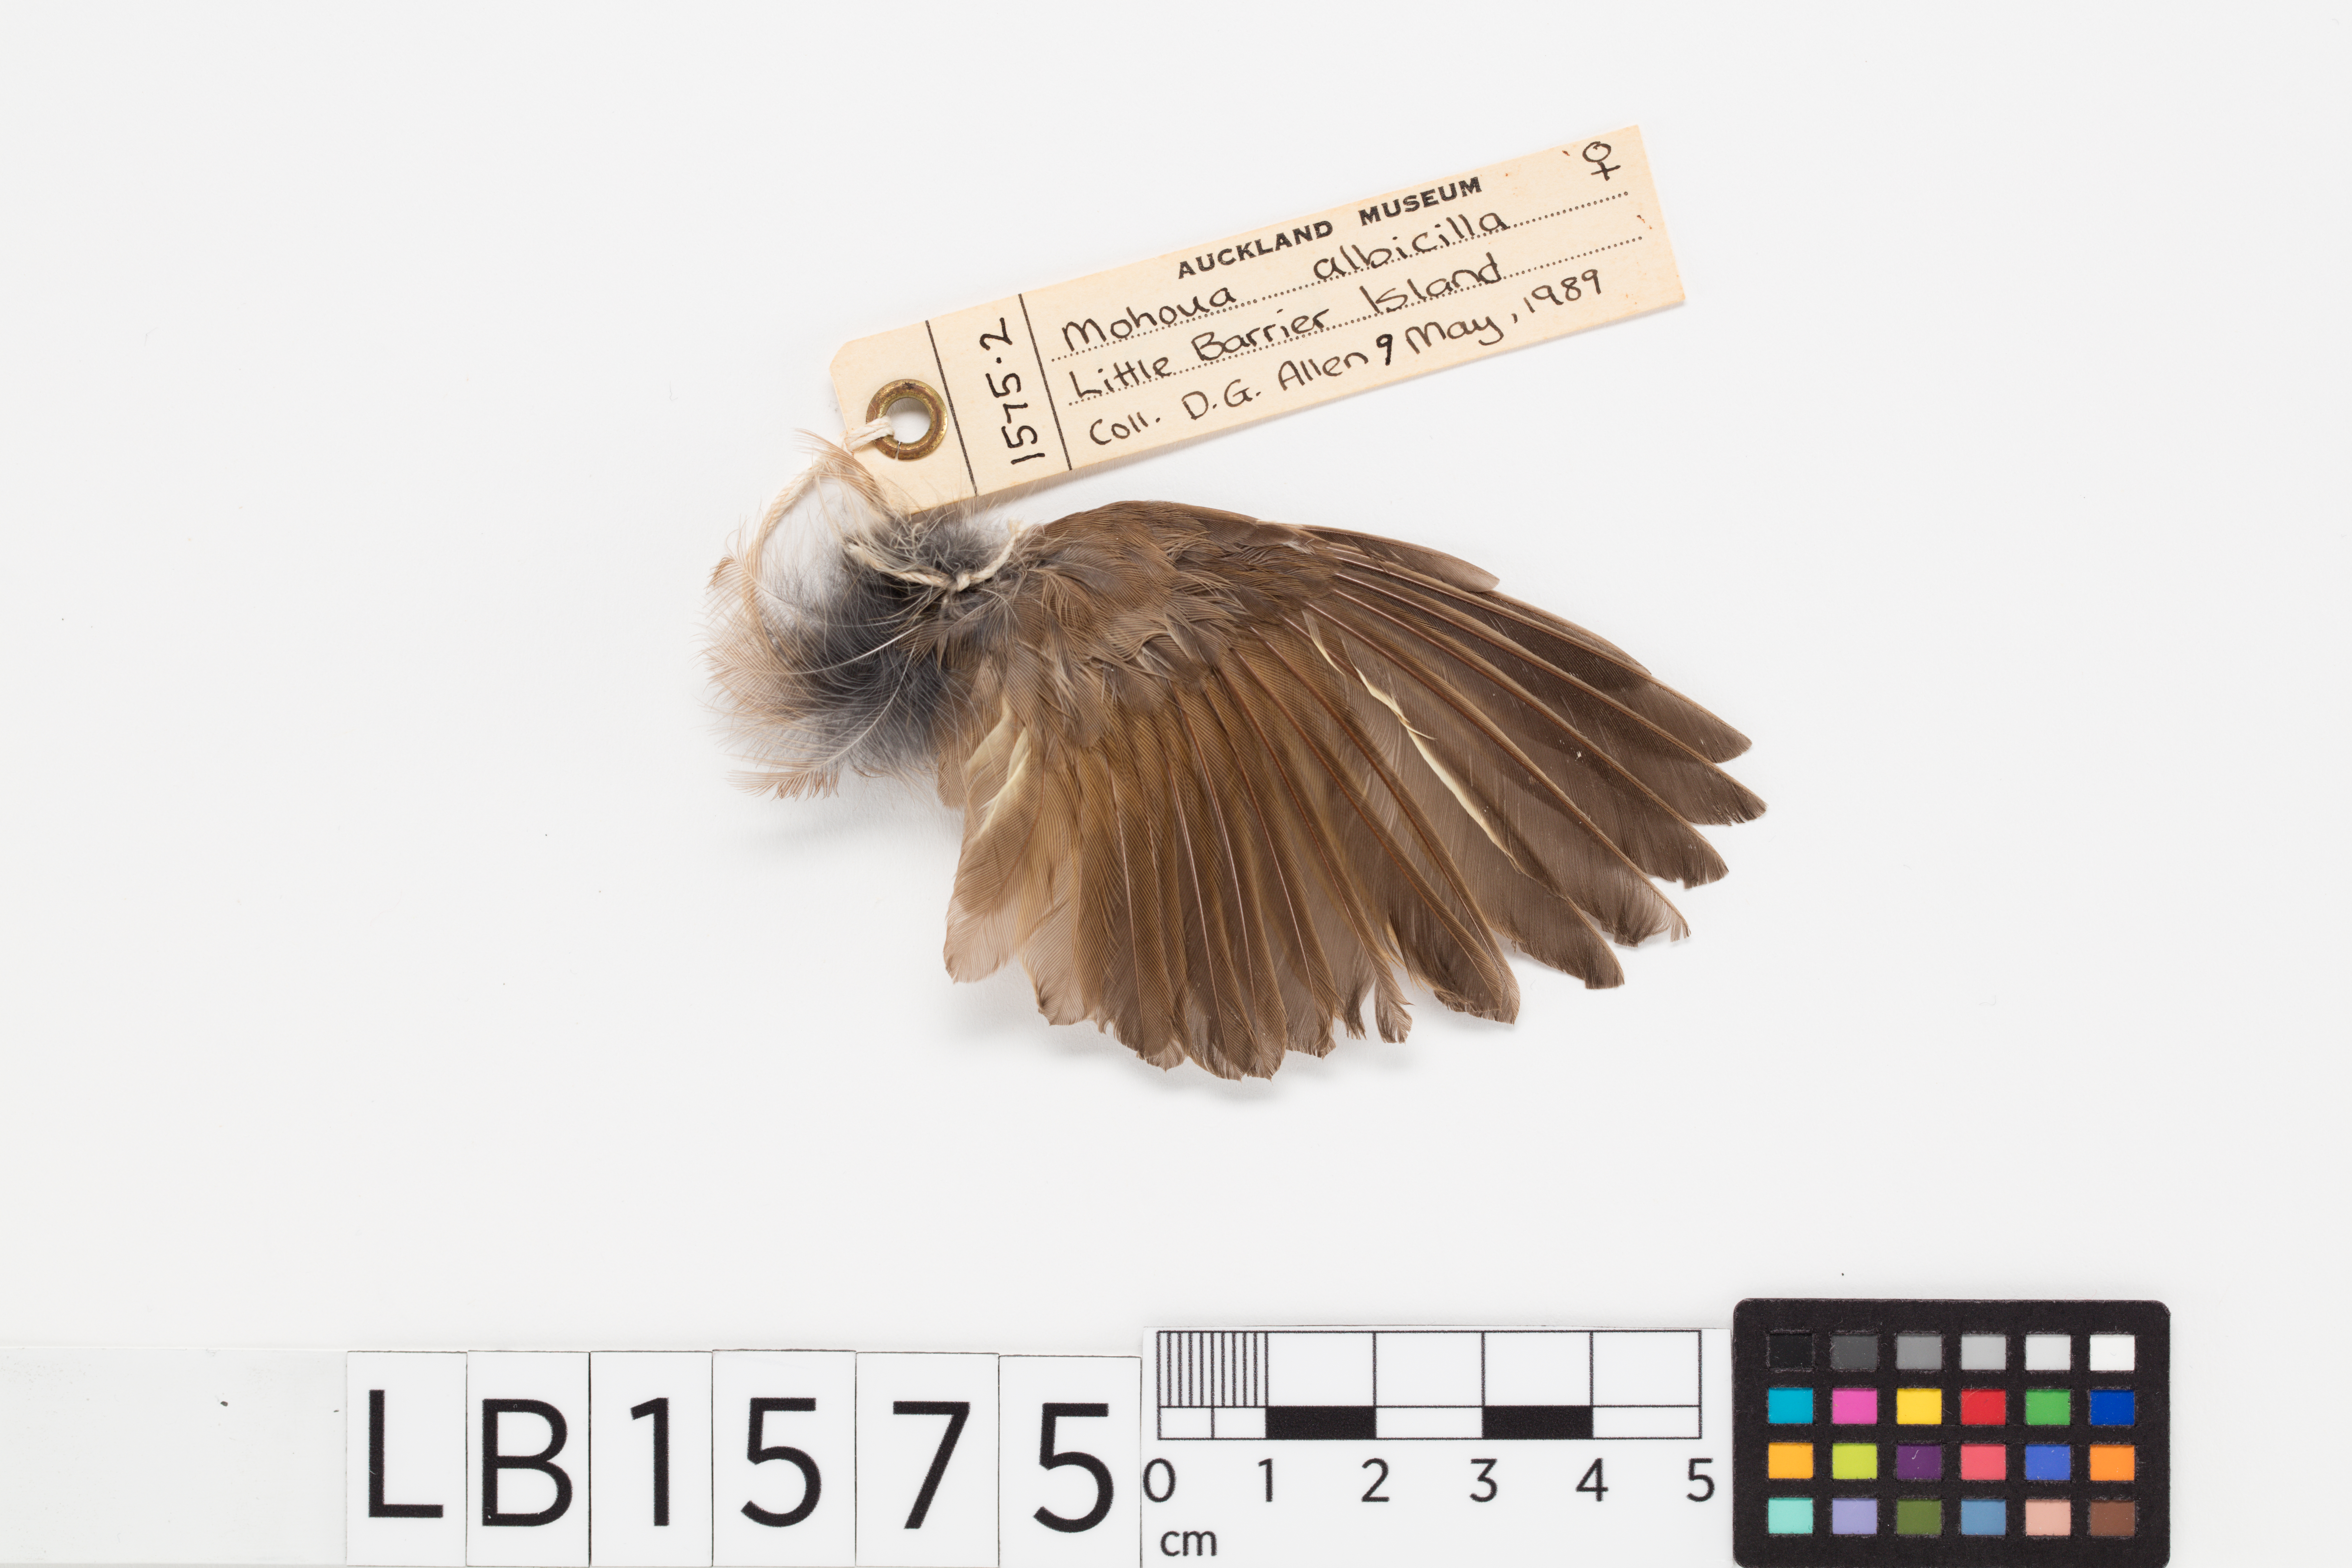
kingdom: Animalia
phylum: Chordata
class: Aves
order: Passeriformes
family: Acanthizidae
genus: Mohoua
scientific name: Mohoua albicilla
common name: Whitehead
